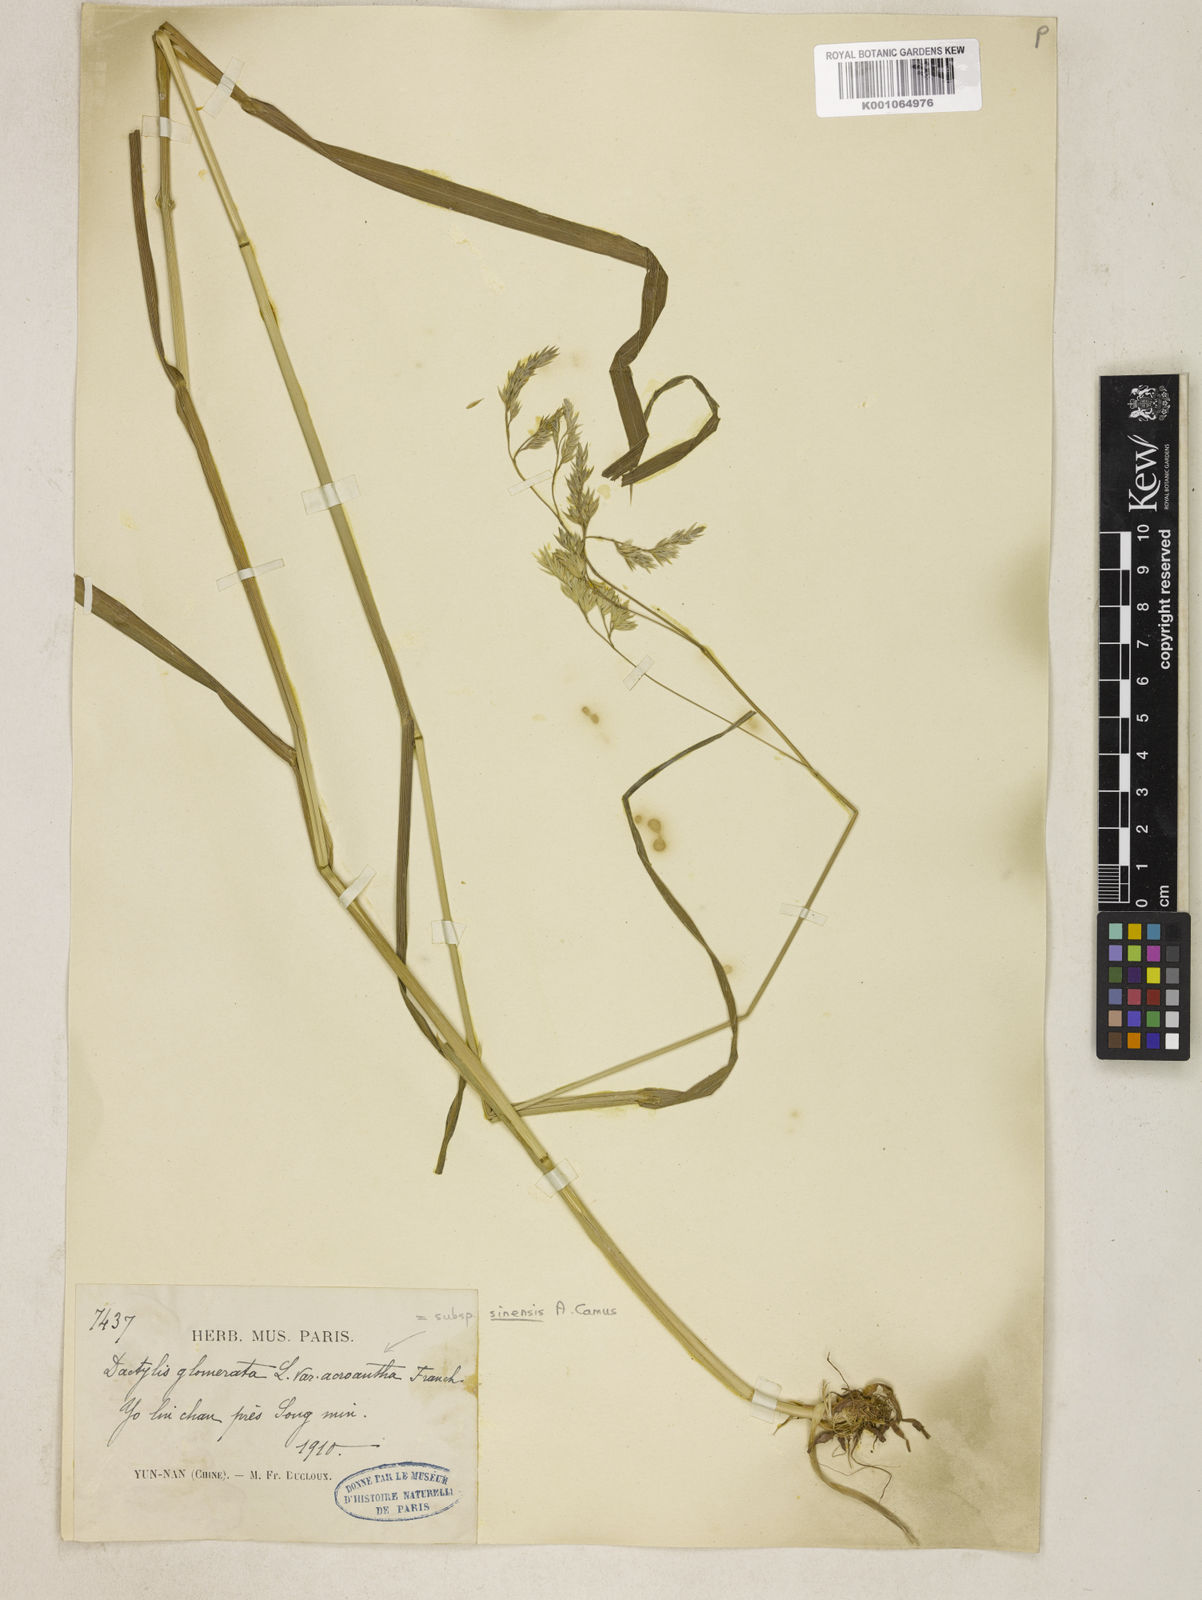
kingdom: Plantae
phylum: Tracheophyta
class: Liliopsida
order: Poales
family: Poaceae
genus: Dactylis
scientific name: Dactylis glomerata
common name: Orchardgrass
